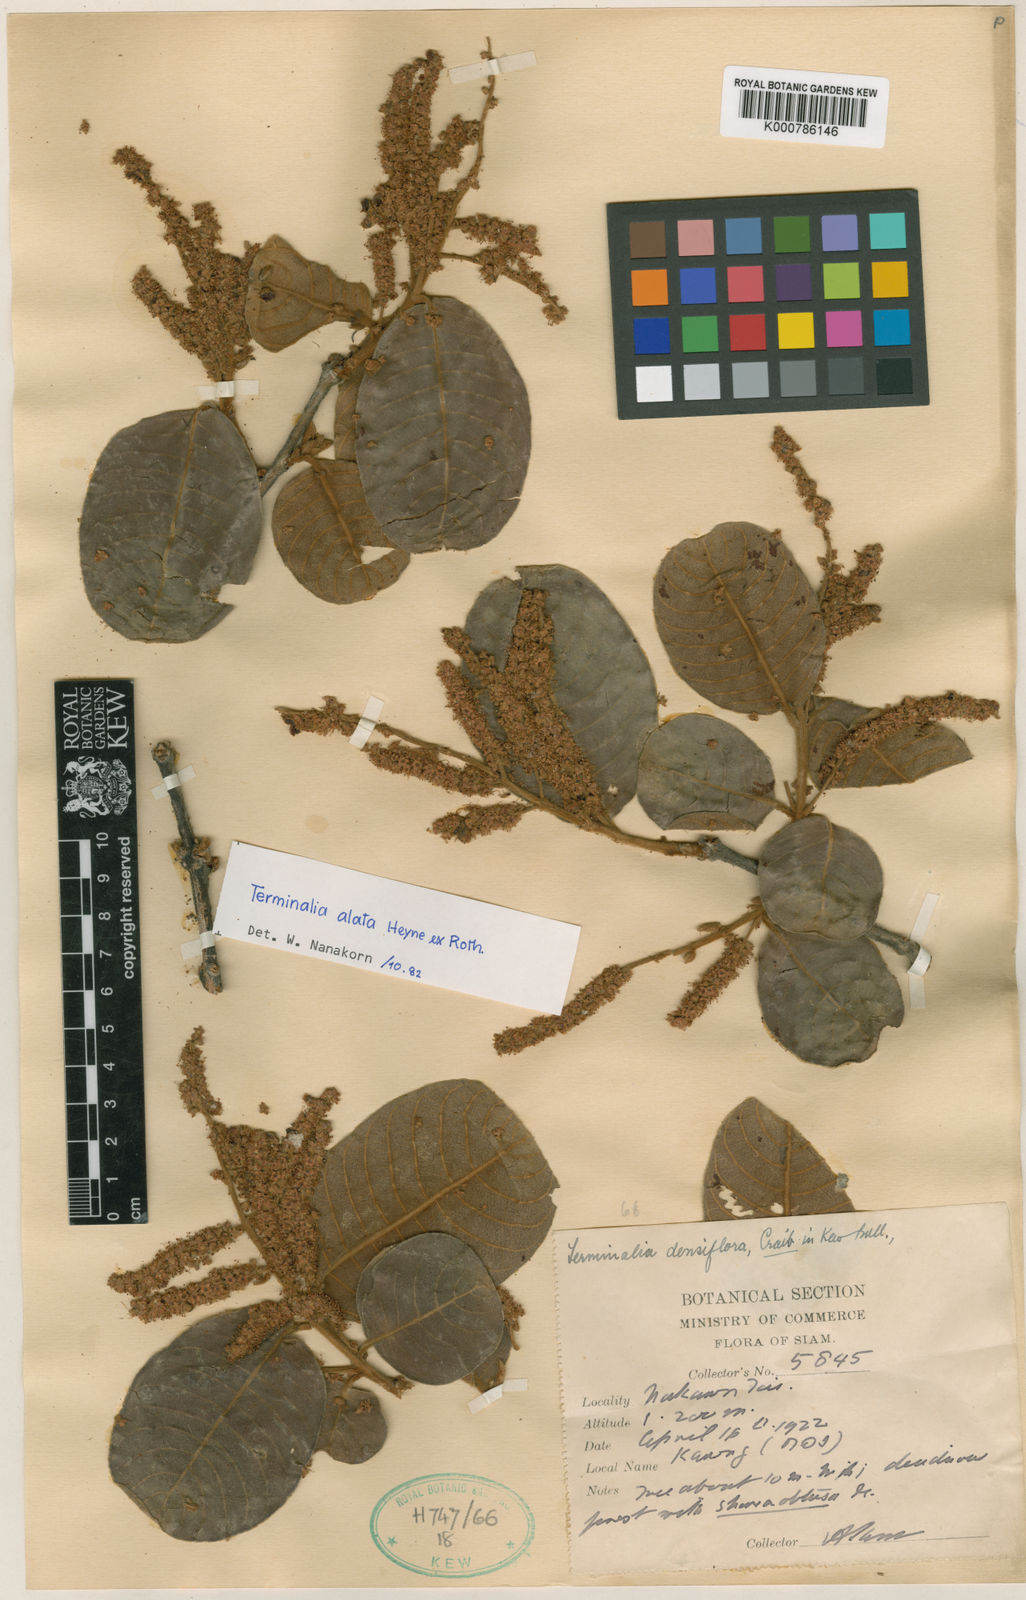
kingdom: Plantae
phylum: Tracheophyta
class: Magnoliopsida
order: Myrtales
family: Combretaceae
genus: Terminalia
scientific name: Terminalia densiflora
